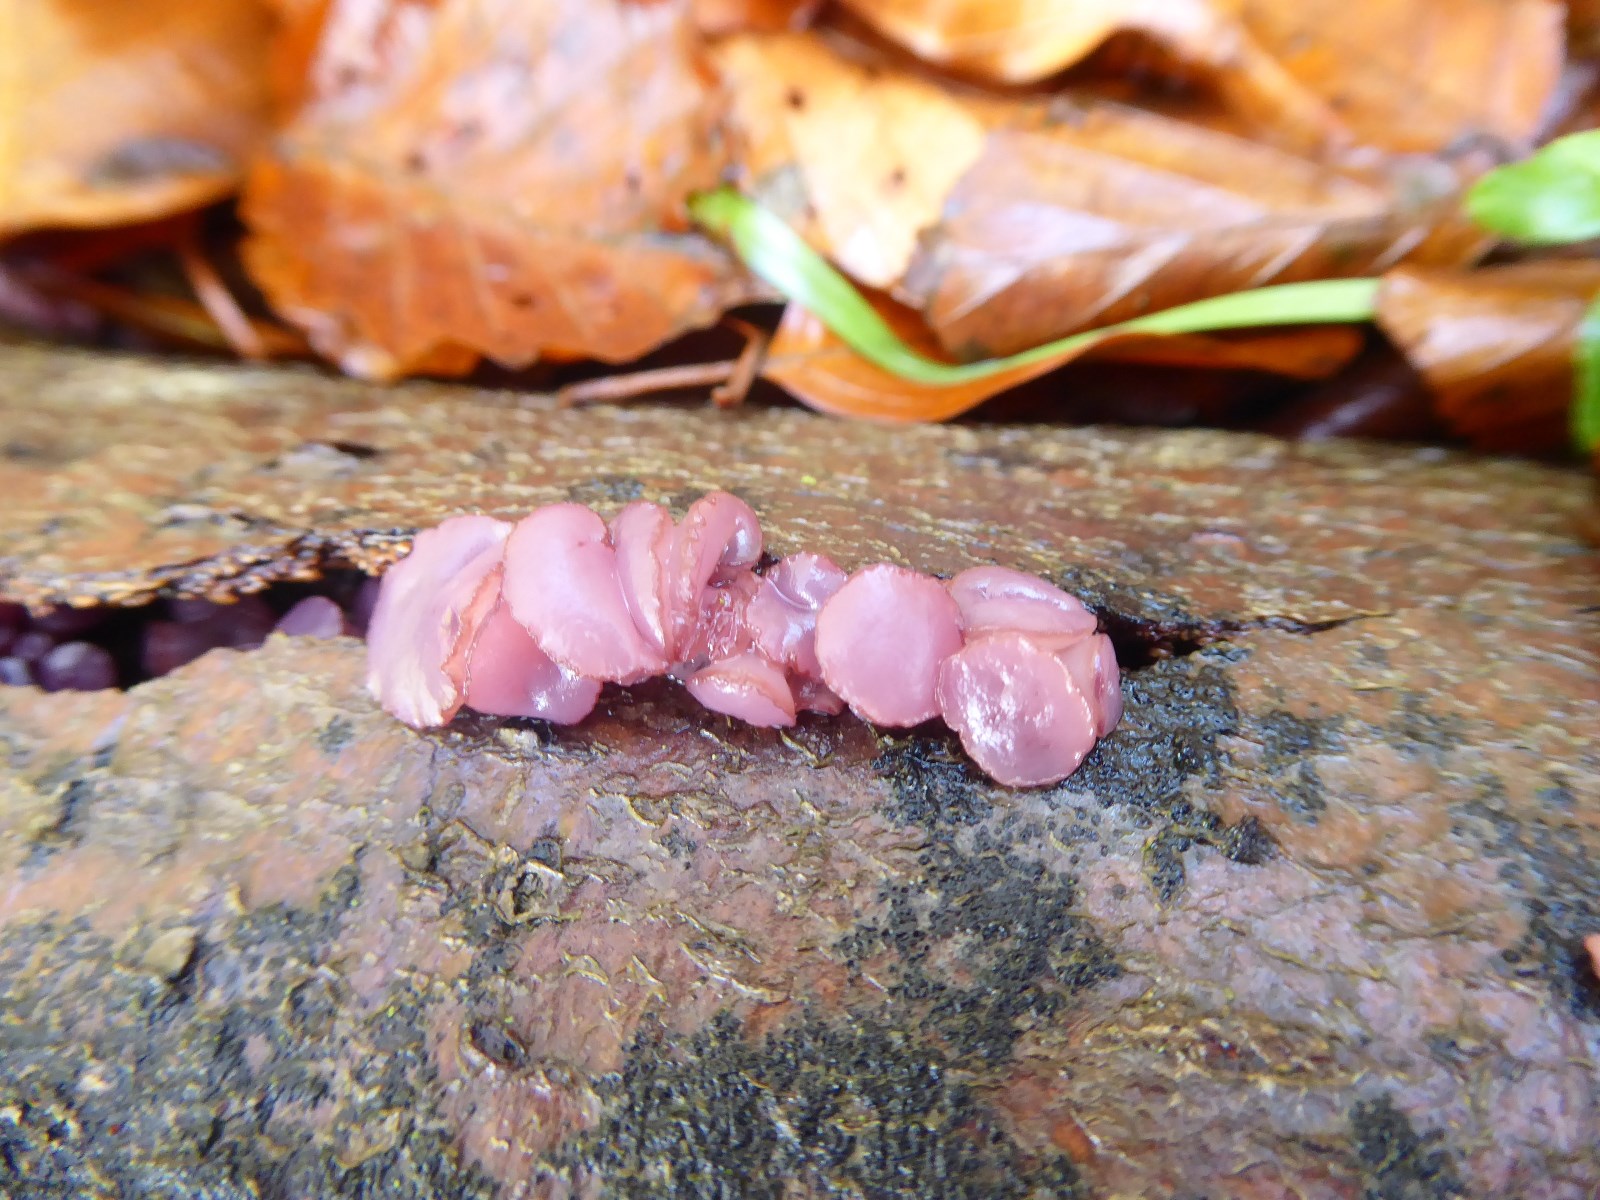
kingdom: Fungi
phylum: Ascomycota
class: Leotiomycetes
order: Helotiales
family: Gelatinodiscaceae
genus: Ascocoryne
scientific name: Ascocoryne
